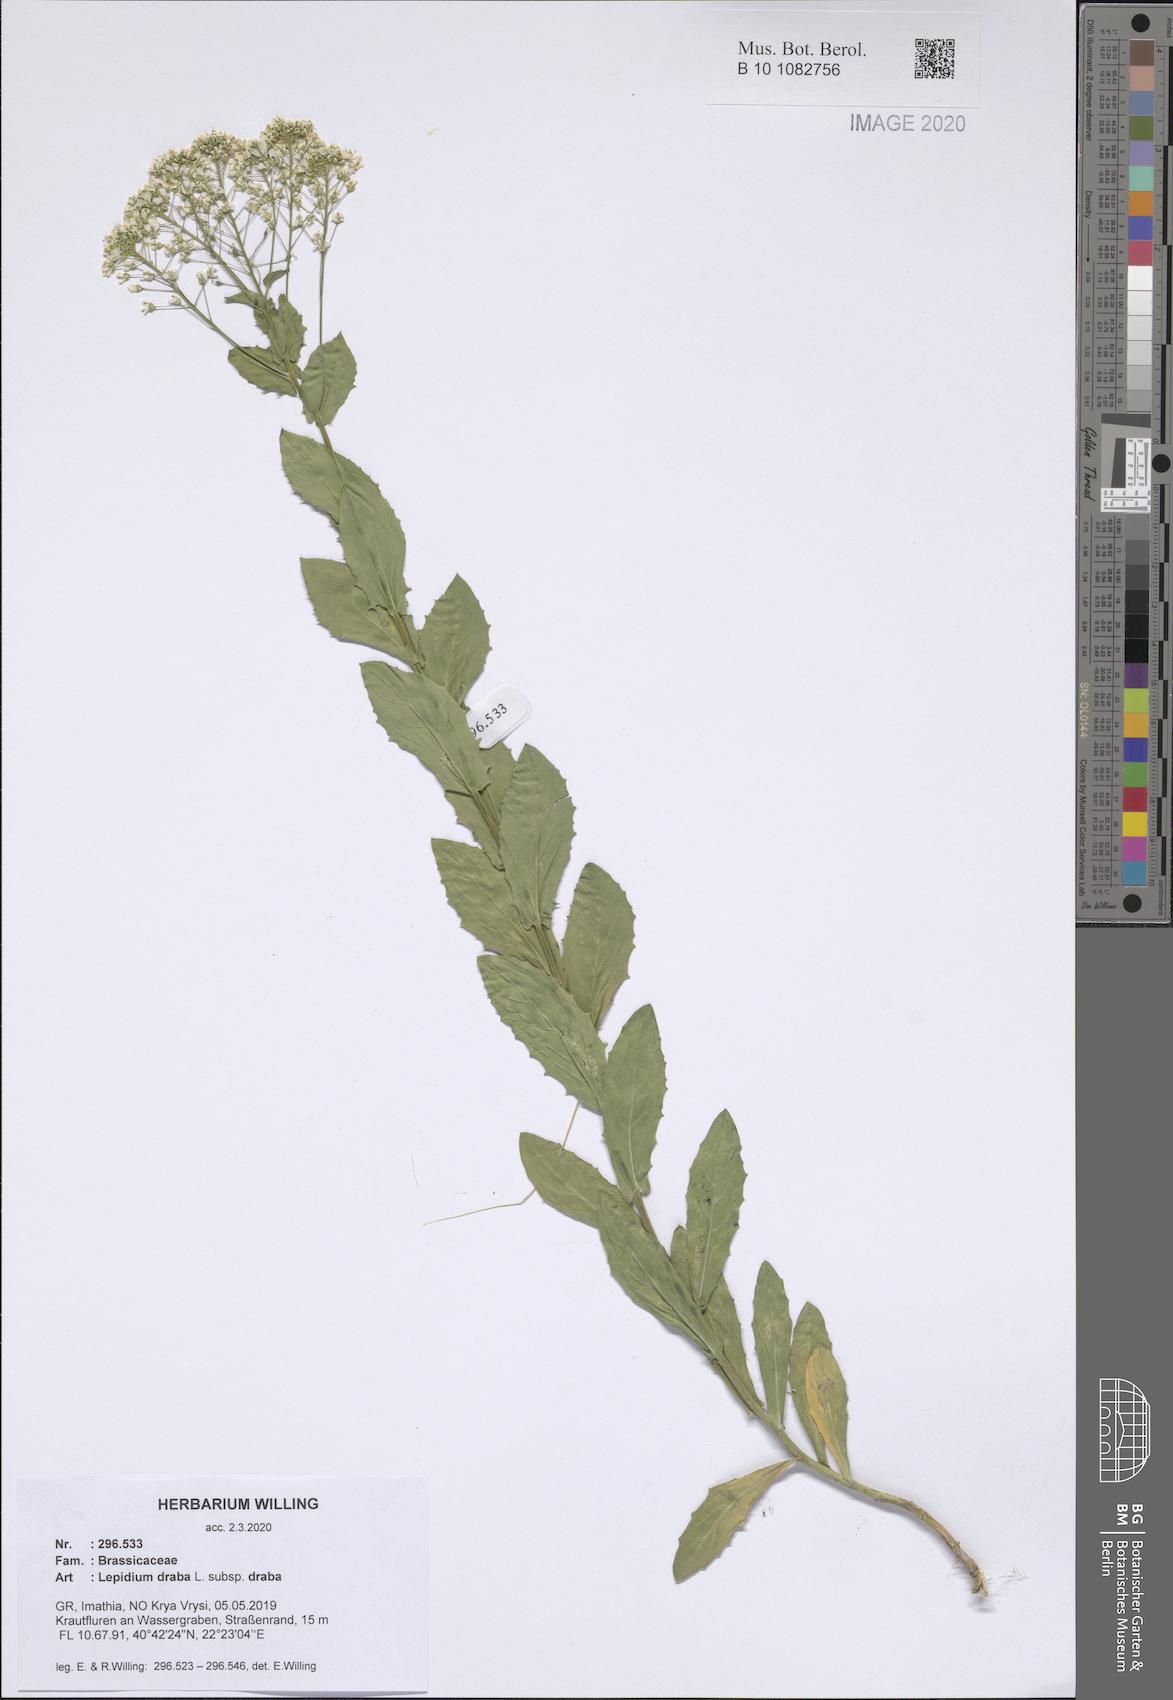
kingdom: Plantae
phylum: Tracheophyta
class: Magnoliopsida
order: Brassicales
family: Brassicaceae
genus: Lepidium
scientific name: Lepidium draba
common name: Hoary cress
